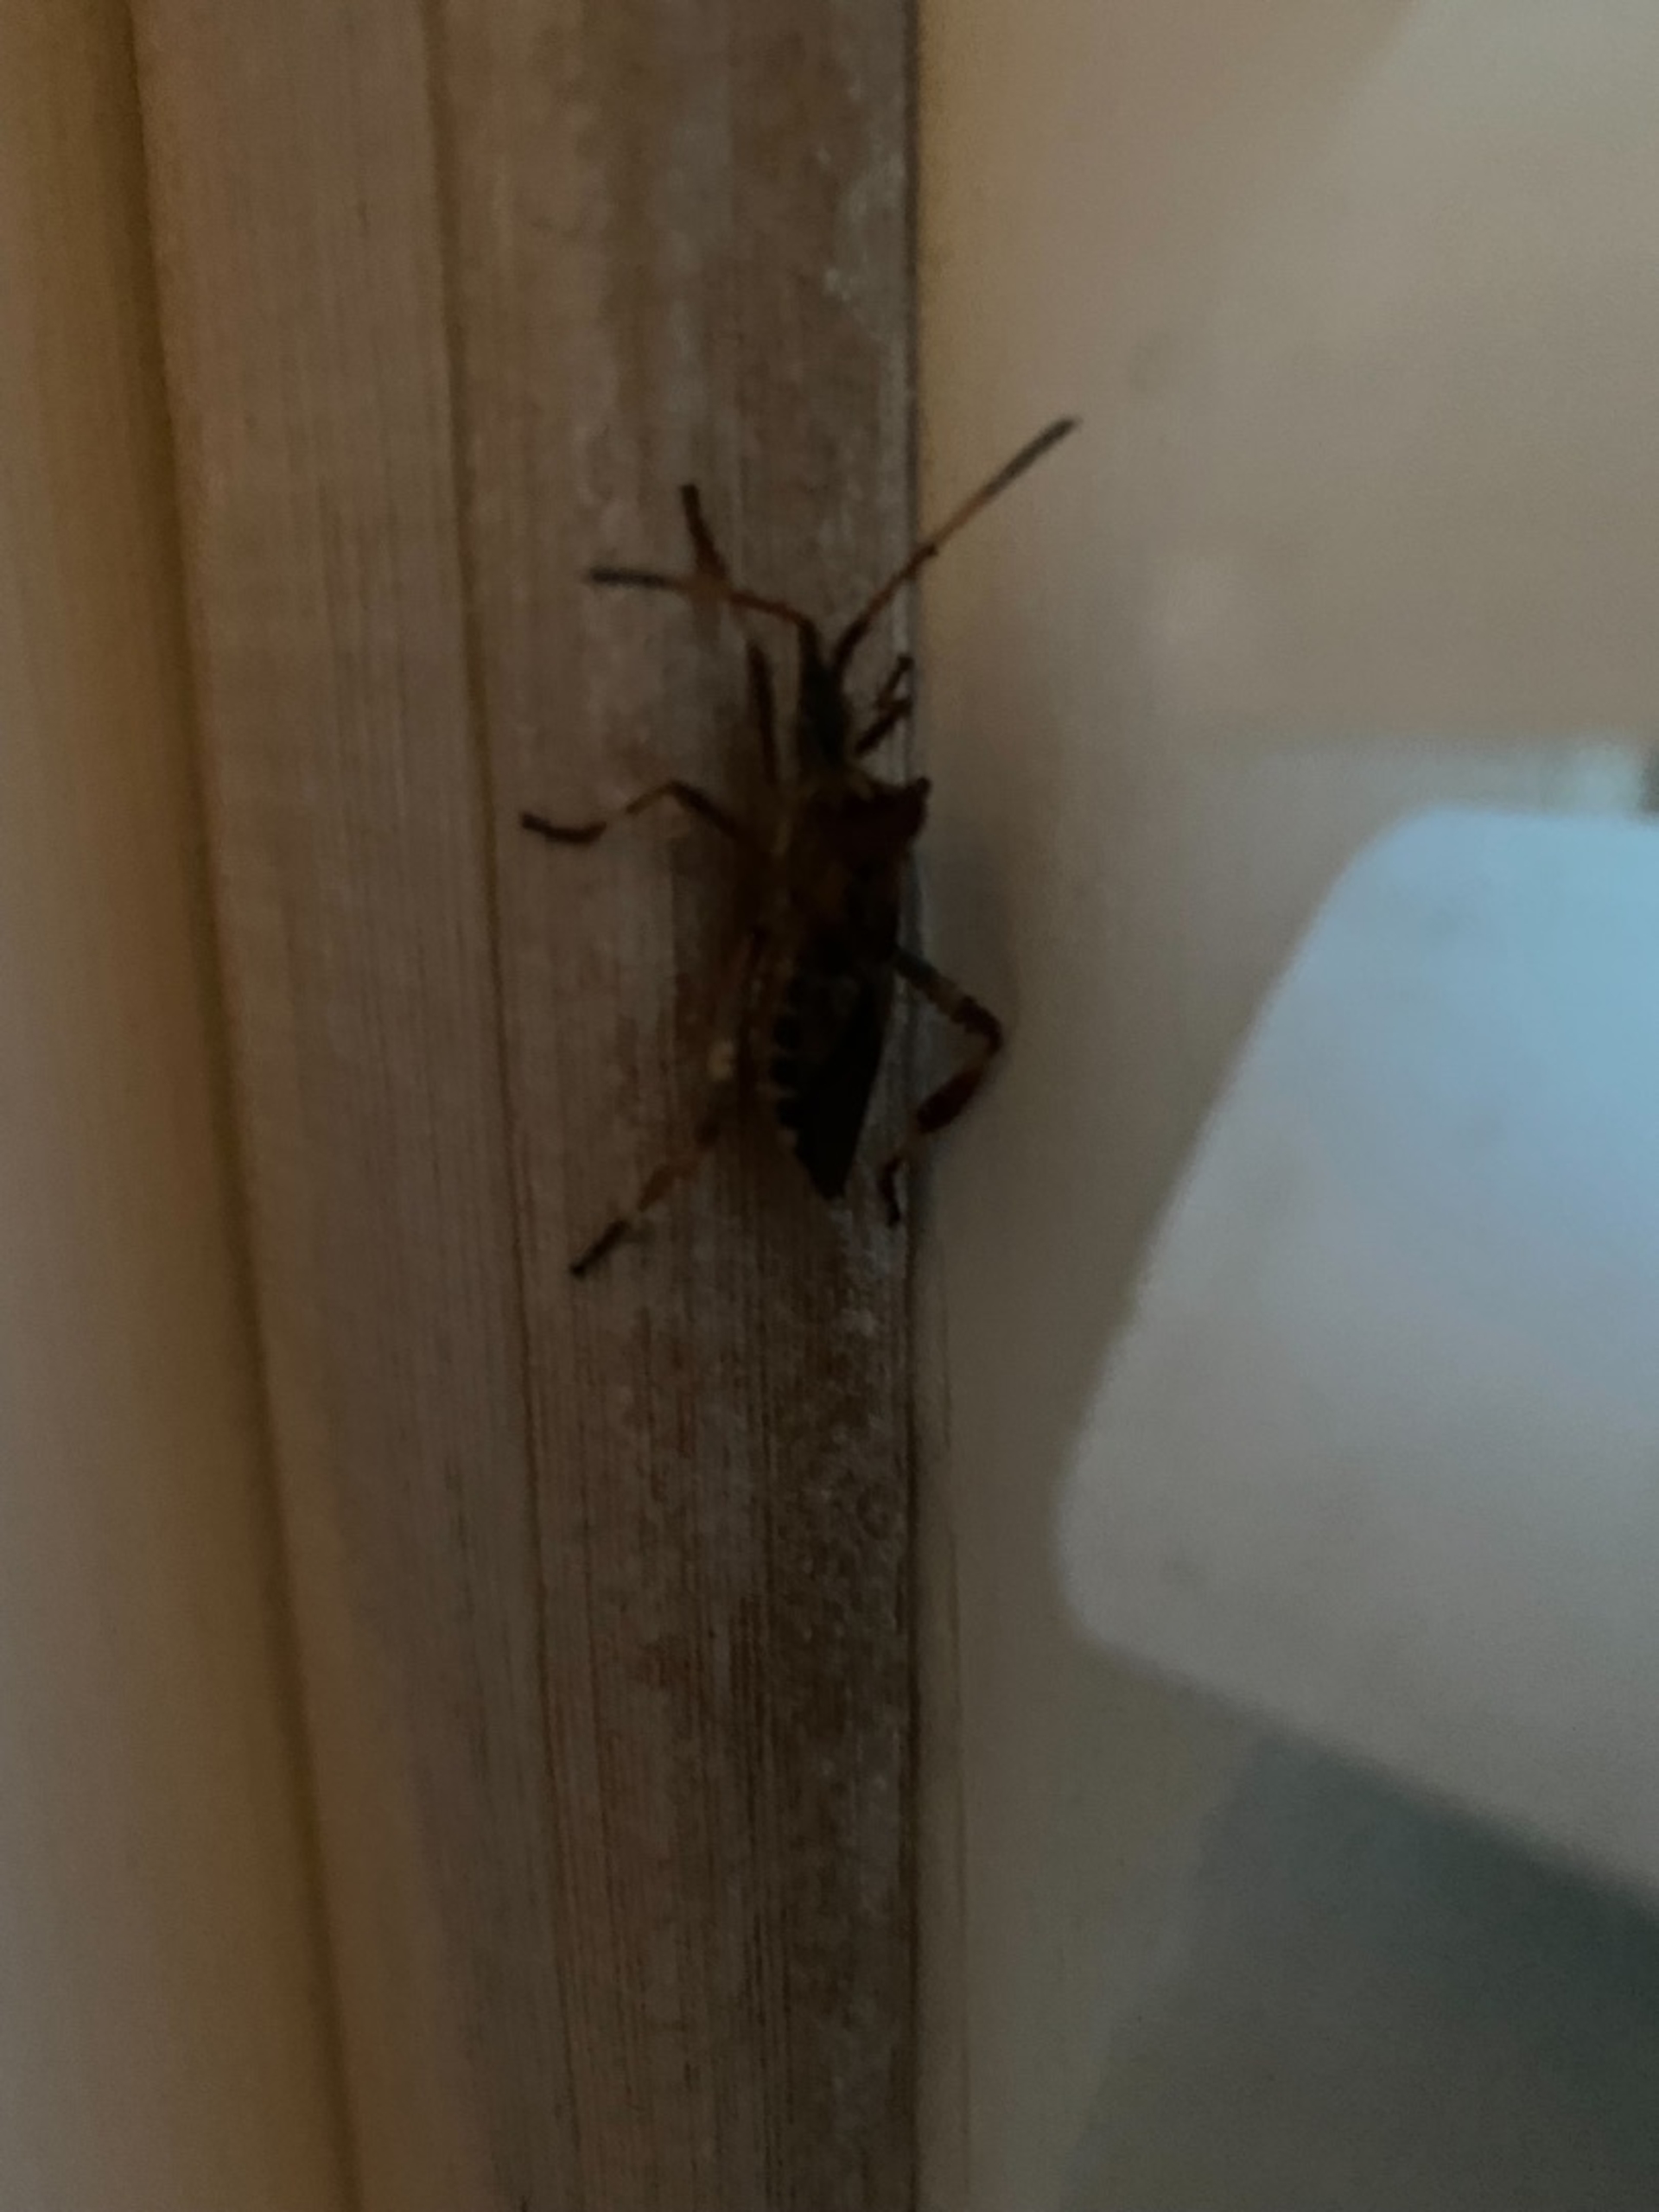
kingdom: Animalia
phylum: Arthropoda
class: Insecta
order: Hemiptera
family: Coreidae
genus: Leptoglossus
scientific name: Leptoglossus occidentalis
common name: Amerikansk fyrretæge
